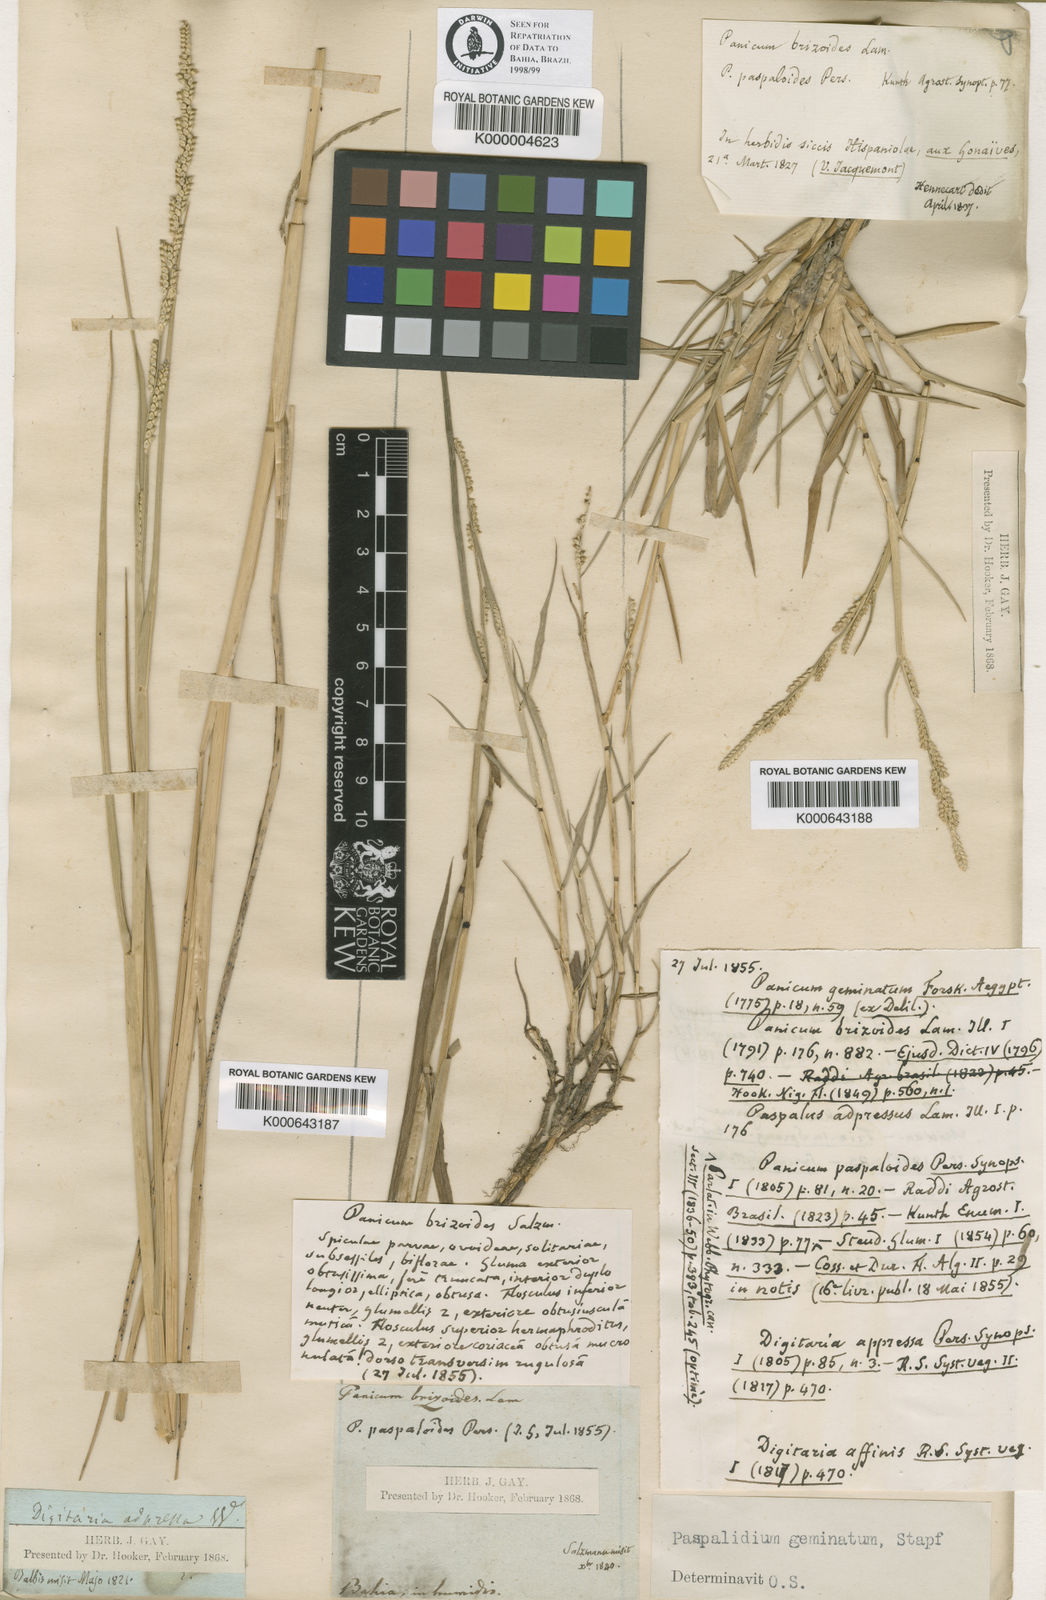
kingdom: Plantae
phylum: Tracheophyta
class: Liliopsida
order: Poales
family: Poaceae
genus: Setaria
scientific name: Setaria geminata
